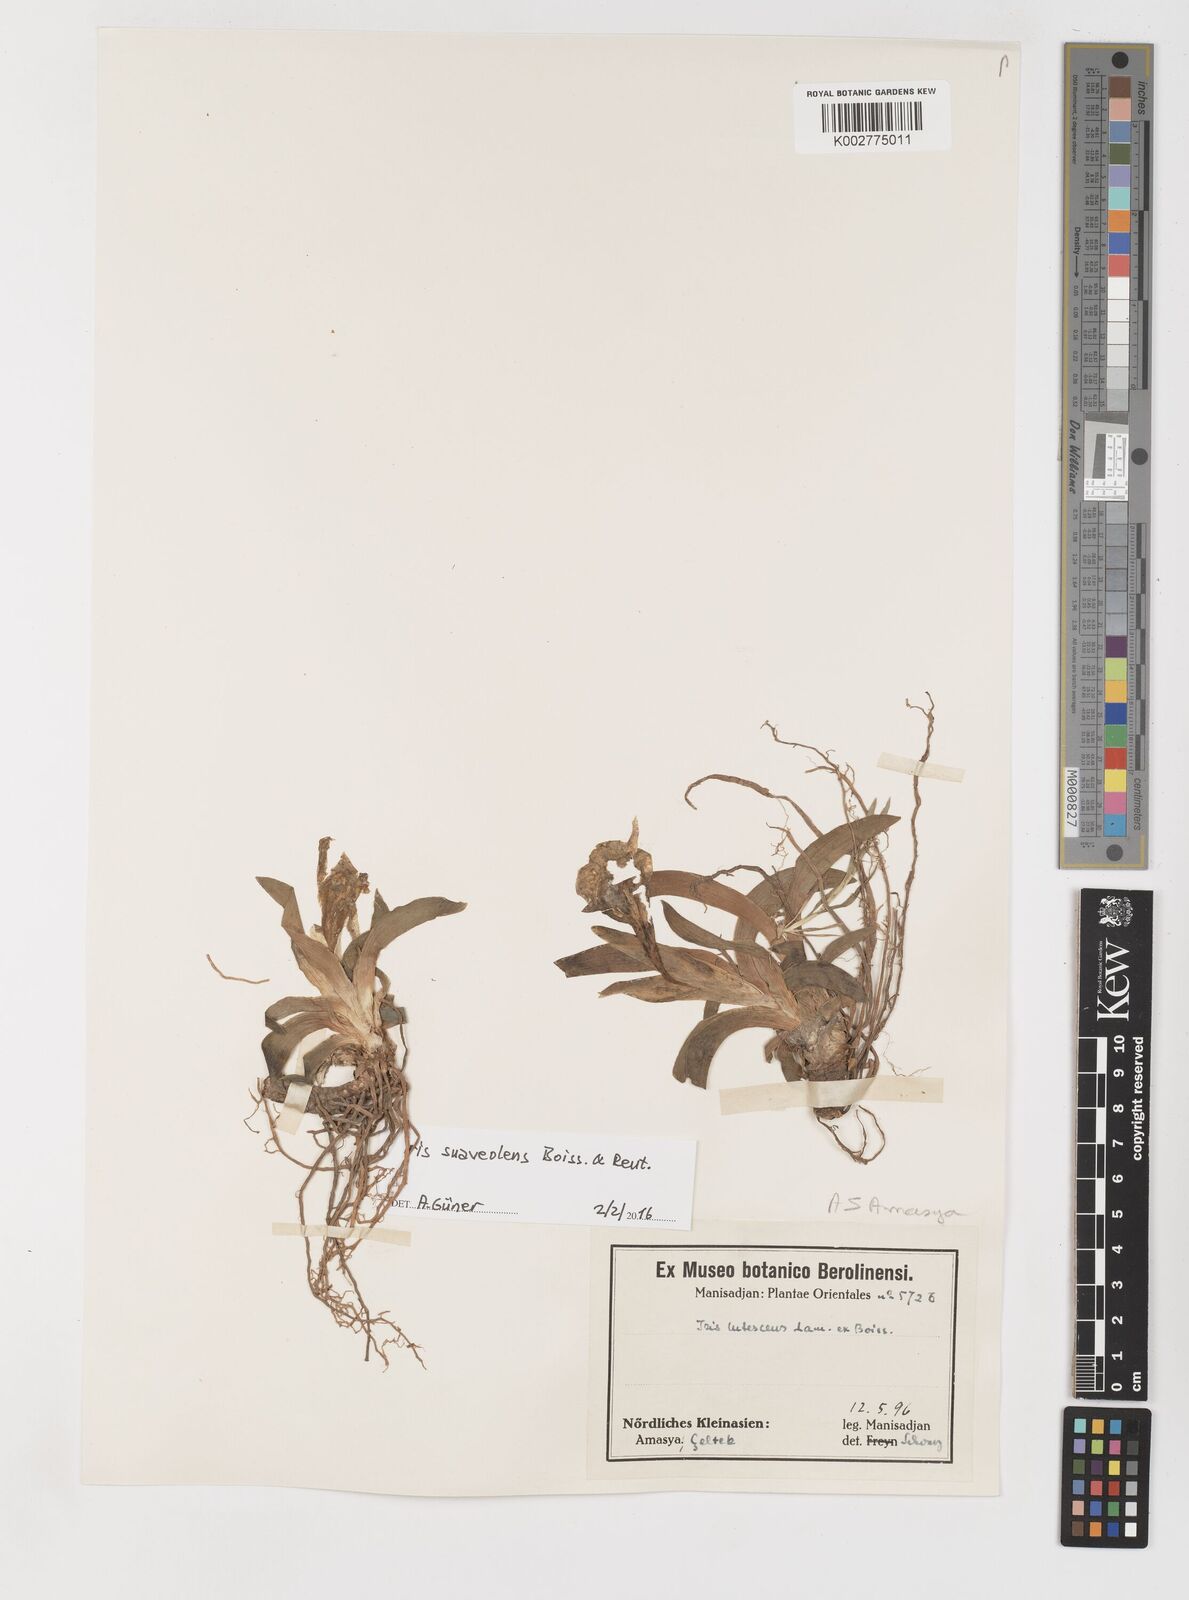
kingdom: Plantae
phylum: Tracheophyta
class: Liliopsida
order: Asparagales
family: Iridaceae
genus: Iris
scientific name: Iris suaveolens
